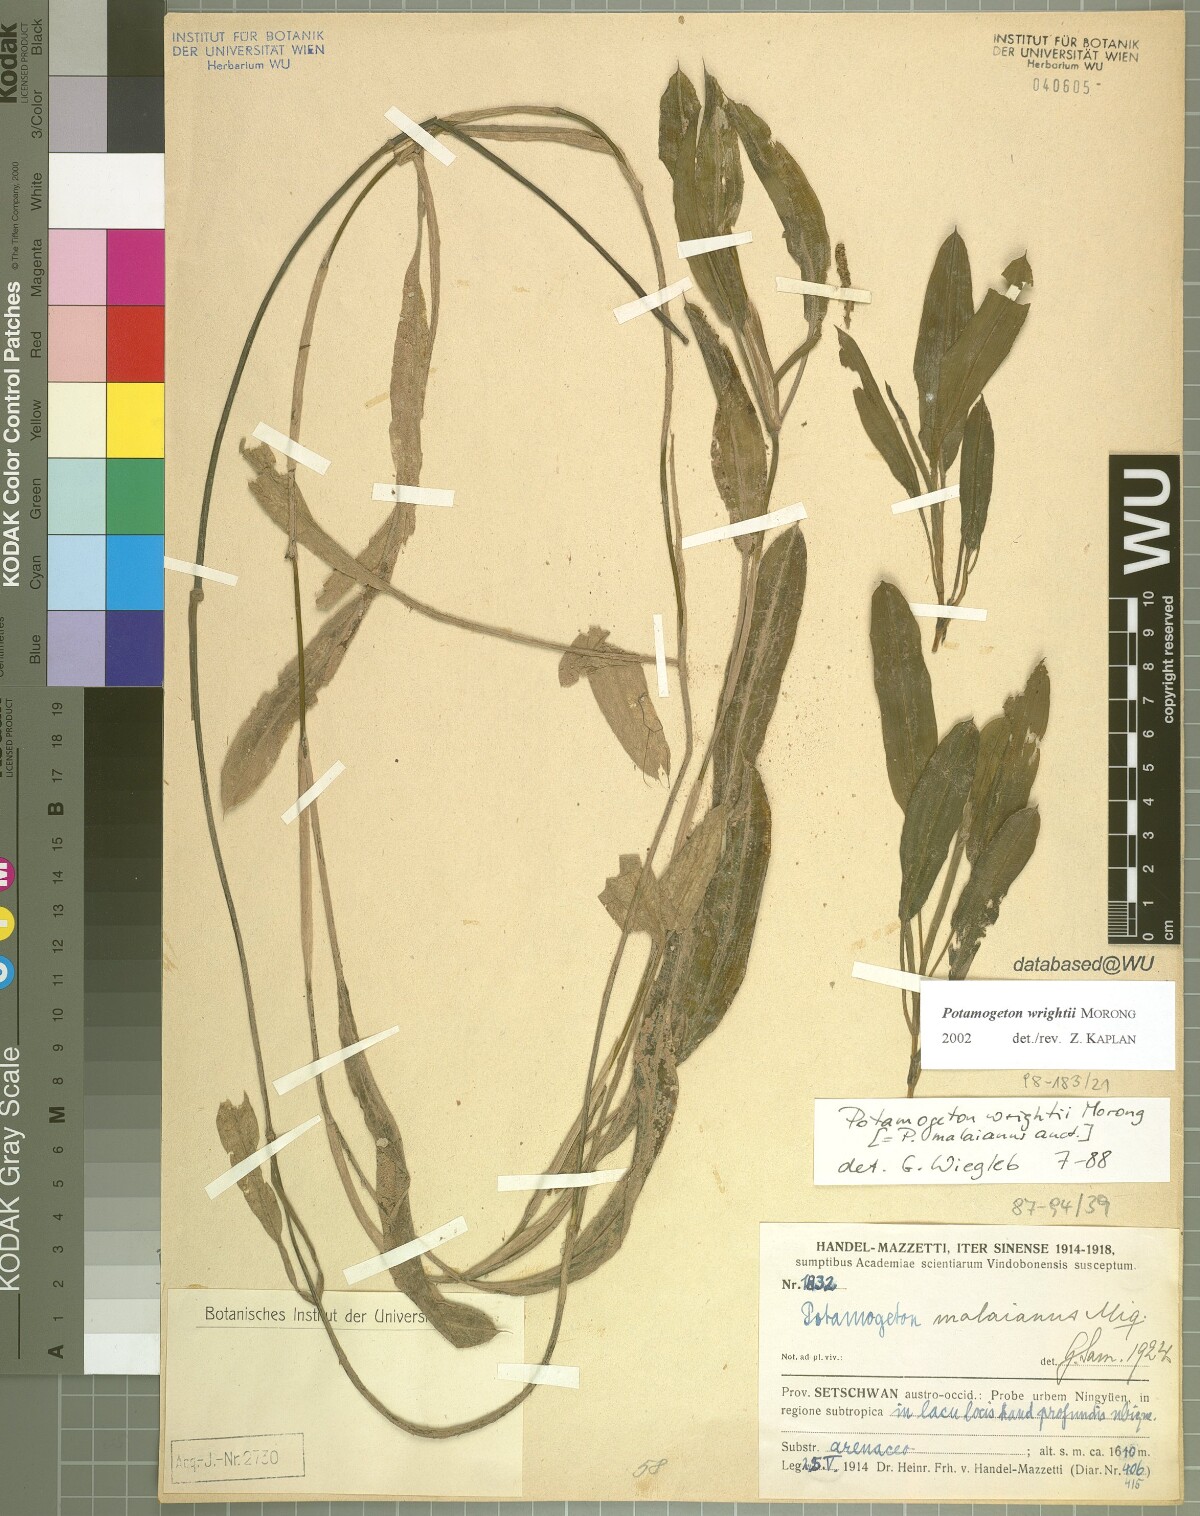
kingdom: Plantae
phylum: Tracheophyta
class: Liliopsida
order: Alismatales
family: Potamogetonaceae
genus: Potamogeton
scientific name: Potamogeton wrightii
